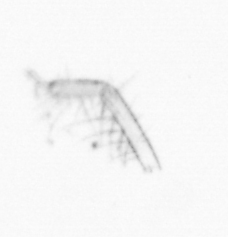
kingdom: Chromista
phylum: Ochrophyta
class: Bacillariophyceae
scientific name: Bacillariophyceae
